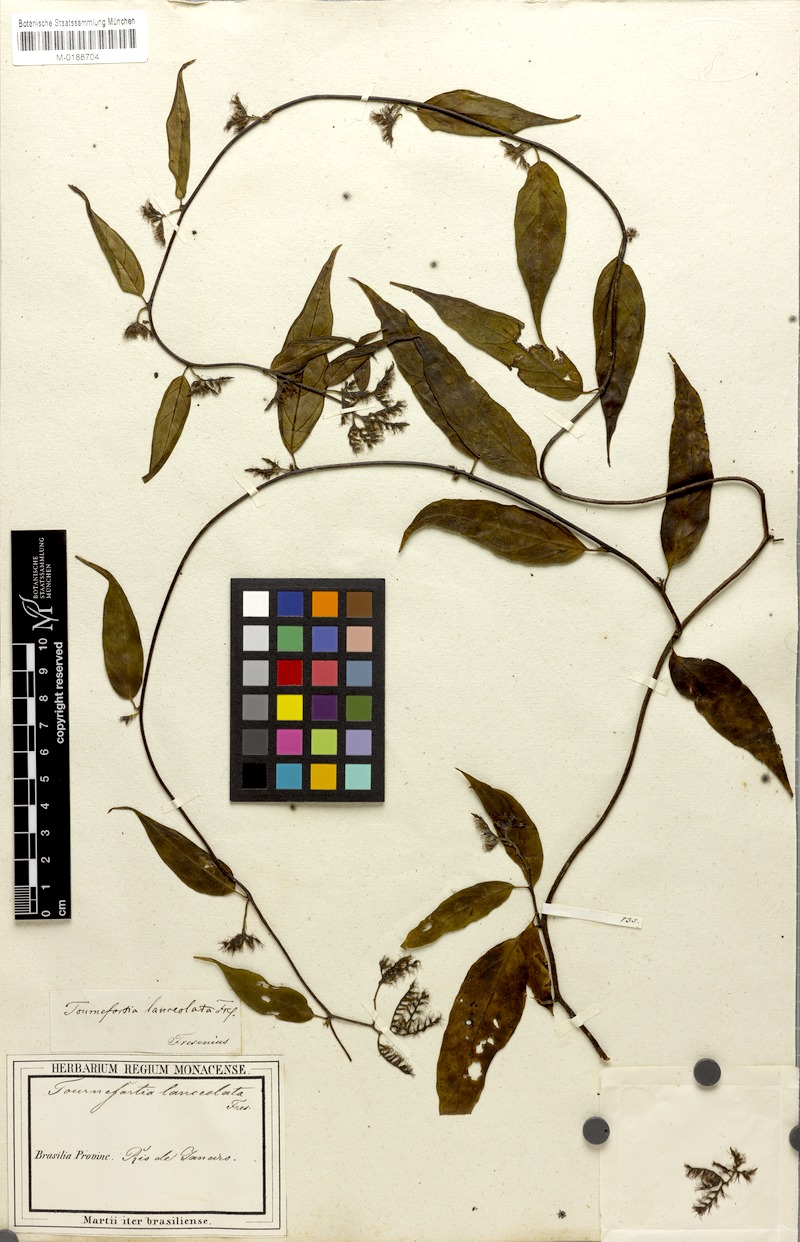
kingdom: Plantae
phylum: Tracheophyta
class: Magnoliopsida
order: Boraginales
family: Heliotropiaceae
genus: Myriopus
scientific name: Myriopus breviflorus
